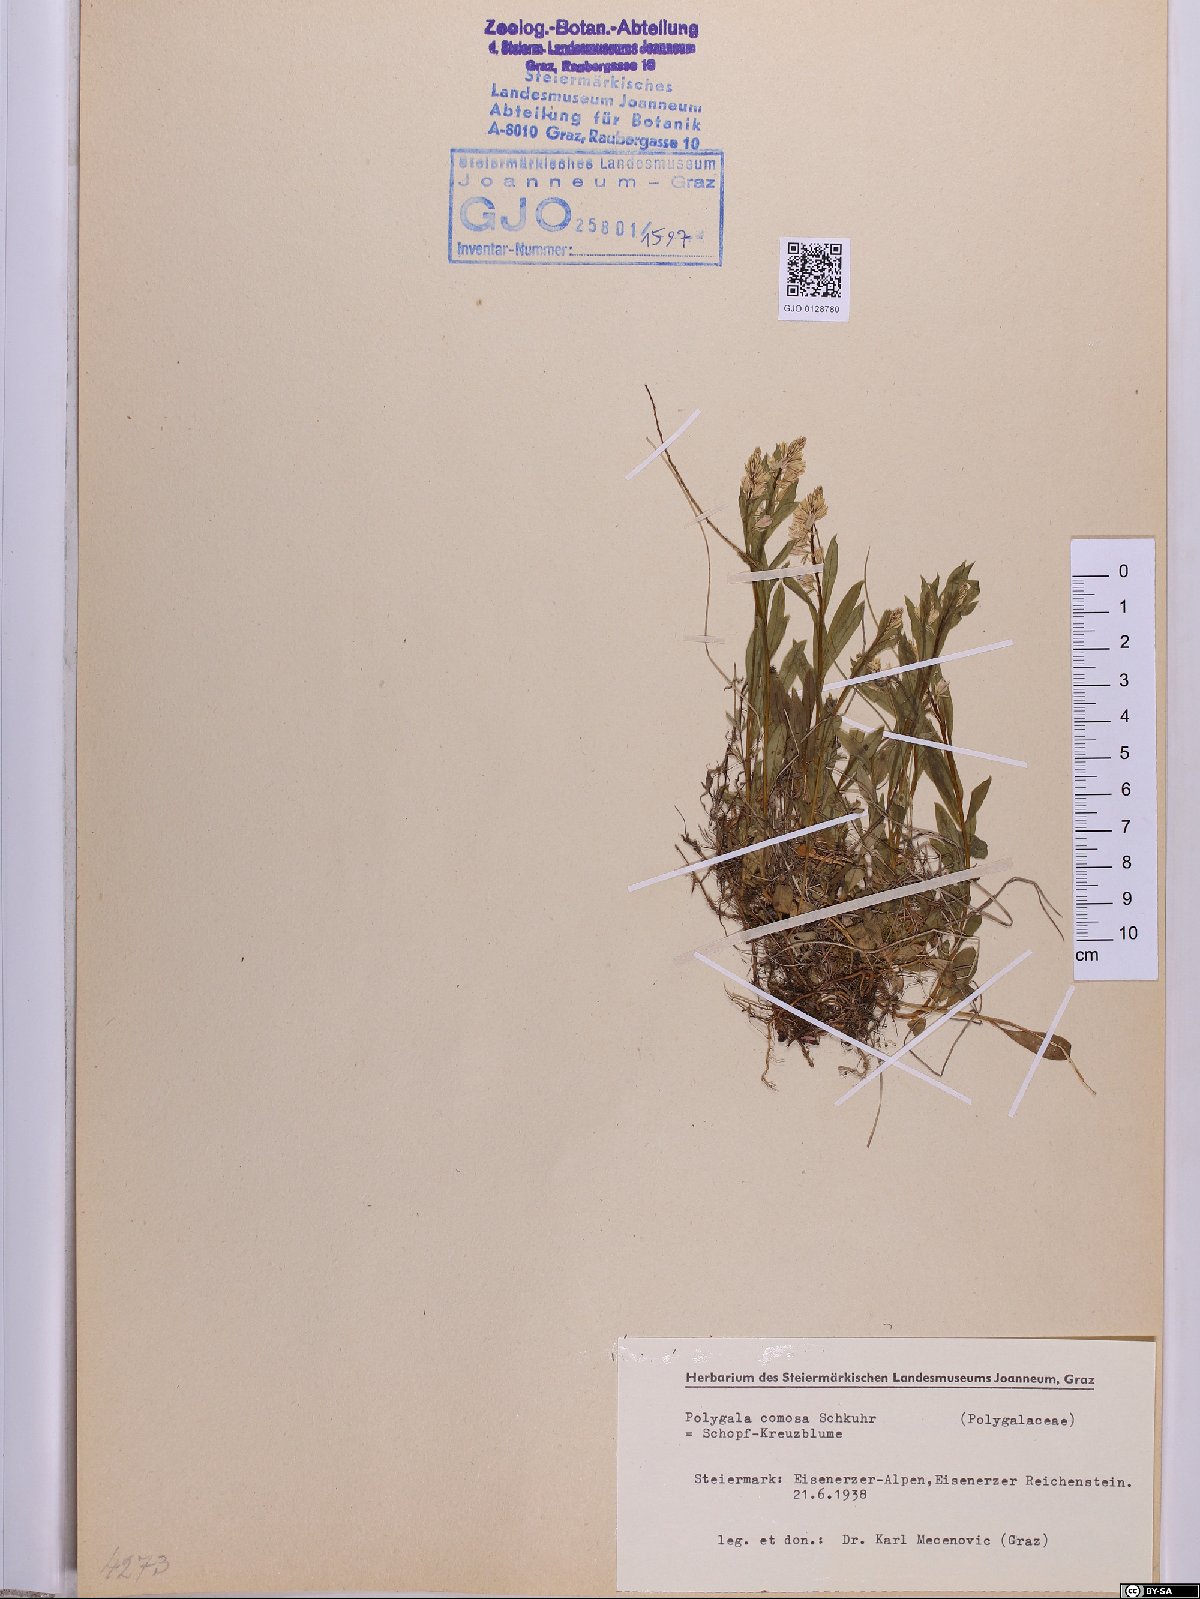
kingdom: Plantae
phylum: Tracheophyta
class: Magnoliopsida
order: Fabales
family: Polygalaceae
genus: Polygala
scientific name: Polygala comosa
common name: Tufted milkwort
